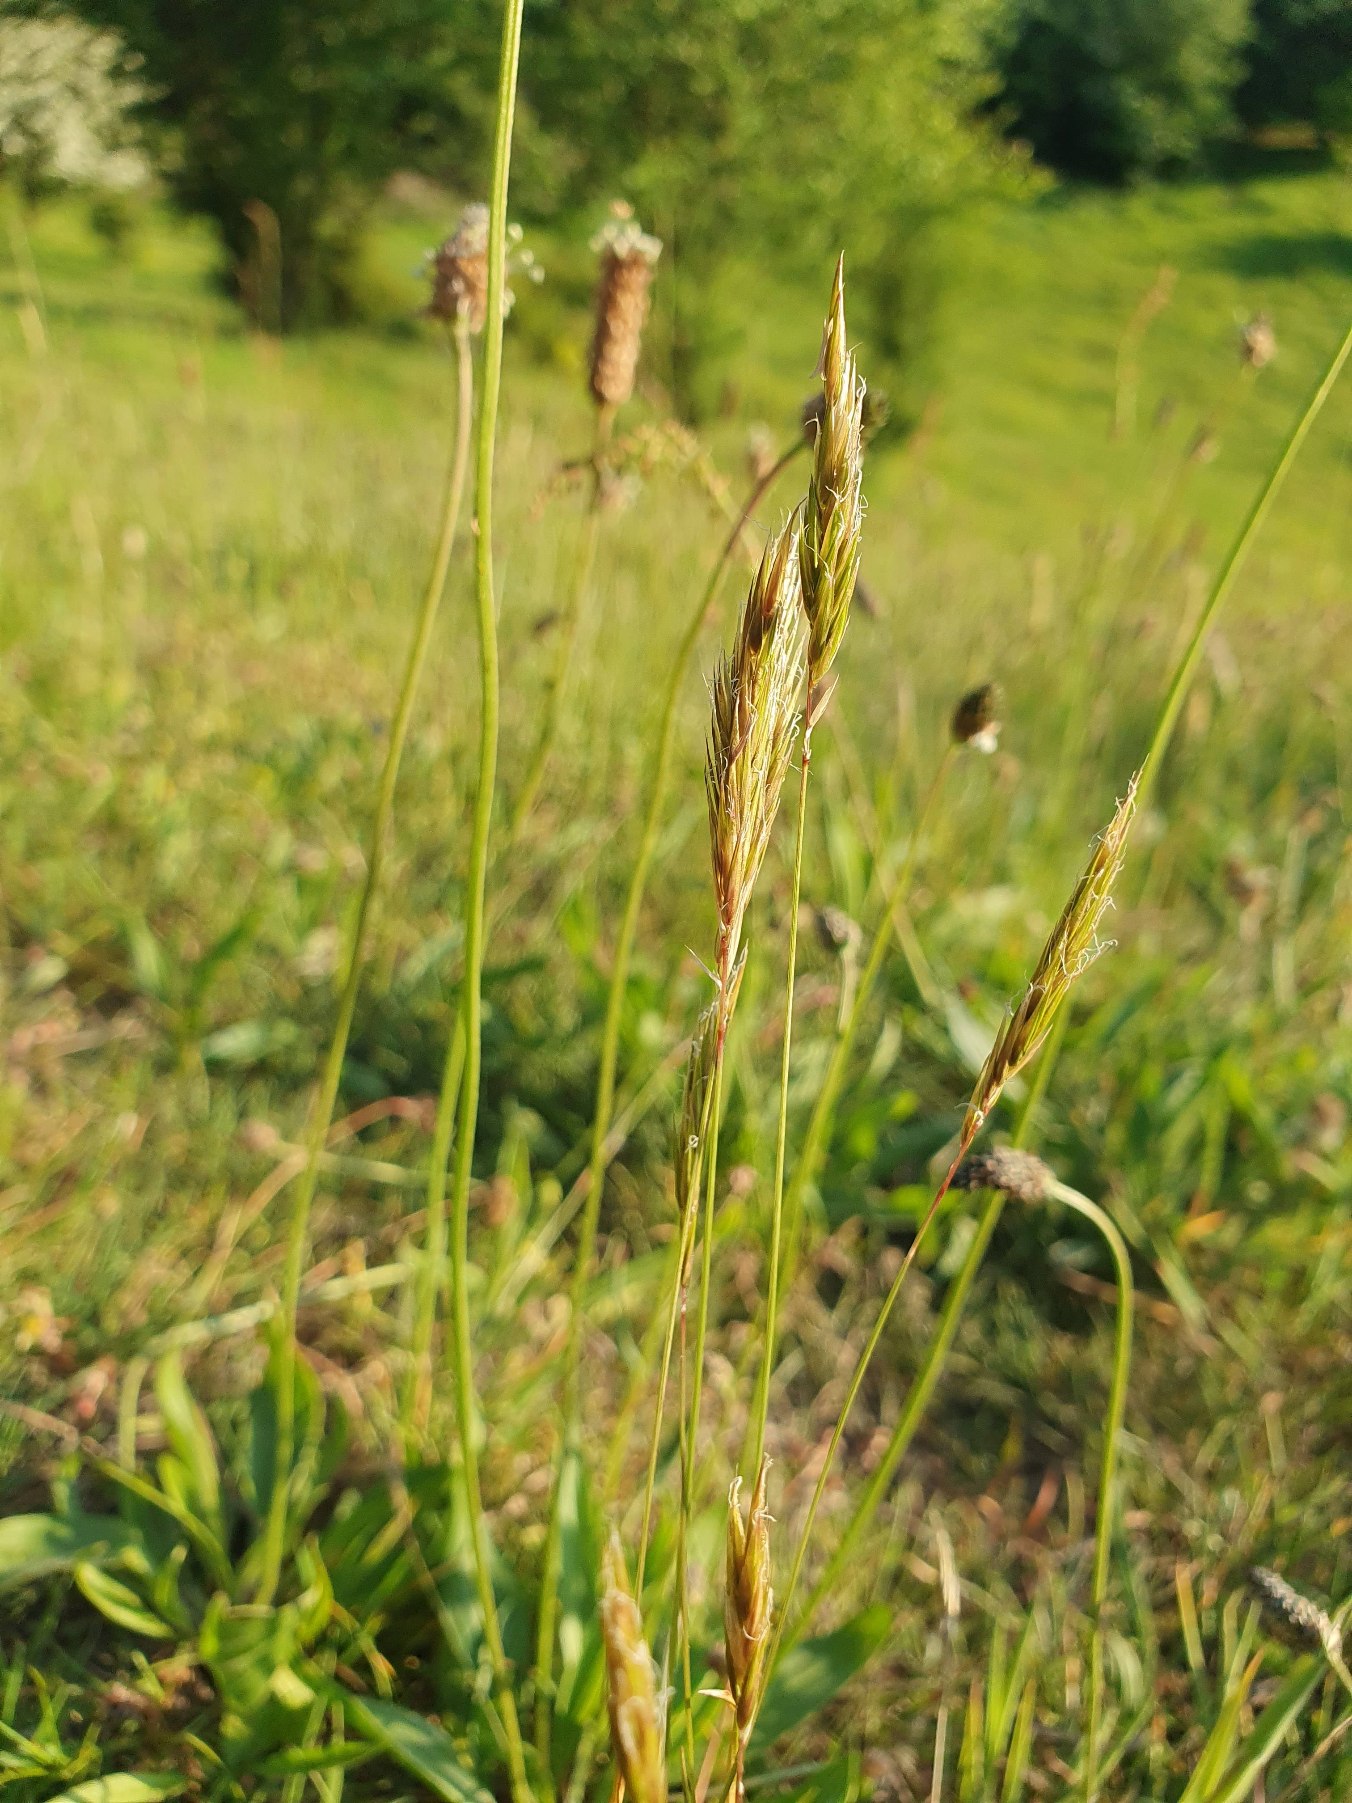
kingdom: Plantae
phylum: Tracheophyta
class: Liliopsida
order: Poales
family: Poaceae
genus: Anthoxanthum
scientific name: Anthoxanthum odoratum
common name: Vellugtende gulaks
